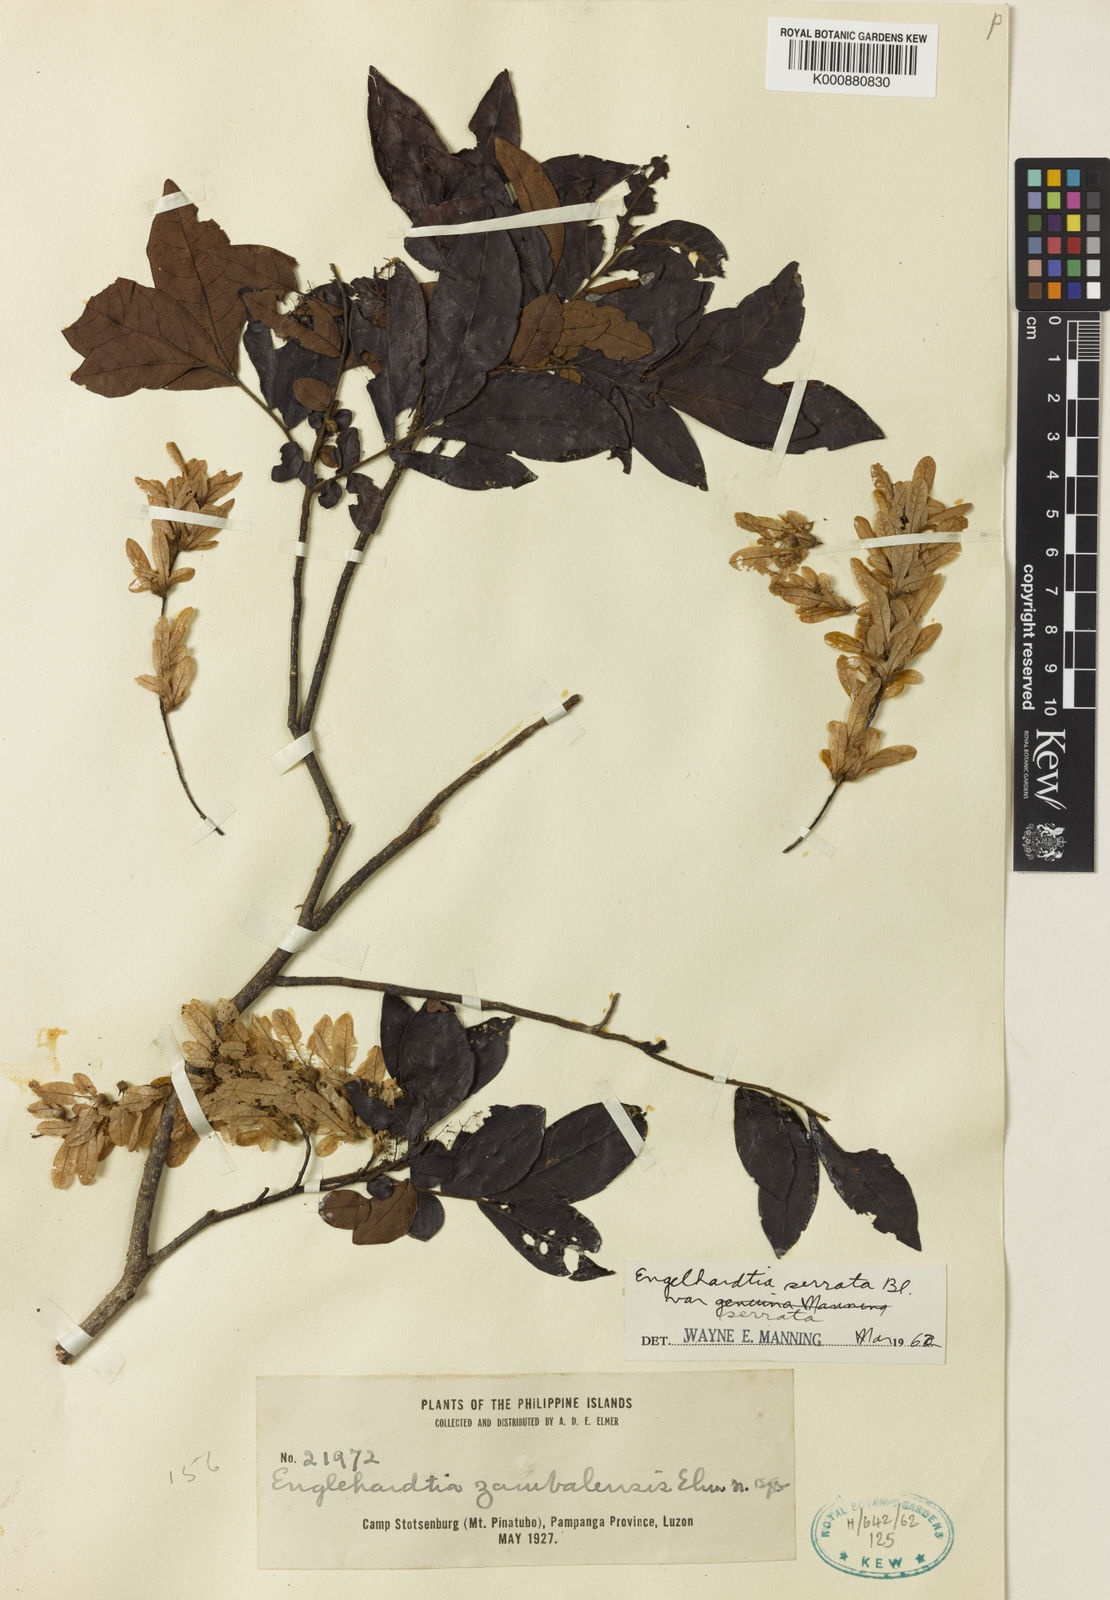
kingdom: Plantae
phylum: Tracheophyta
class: Magnoliopsida
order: Fagales
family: Juglandaceae
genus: Engelhardia
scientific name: Engelhardia serrata
